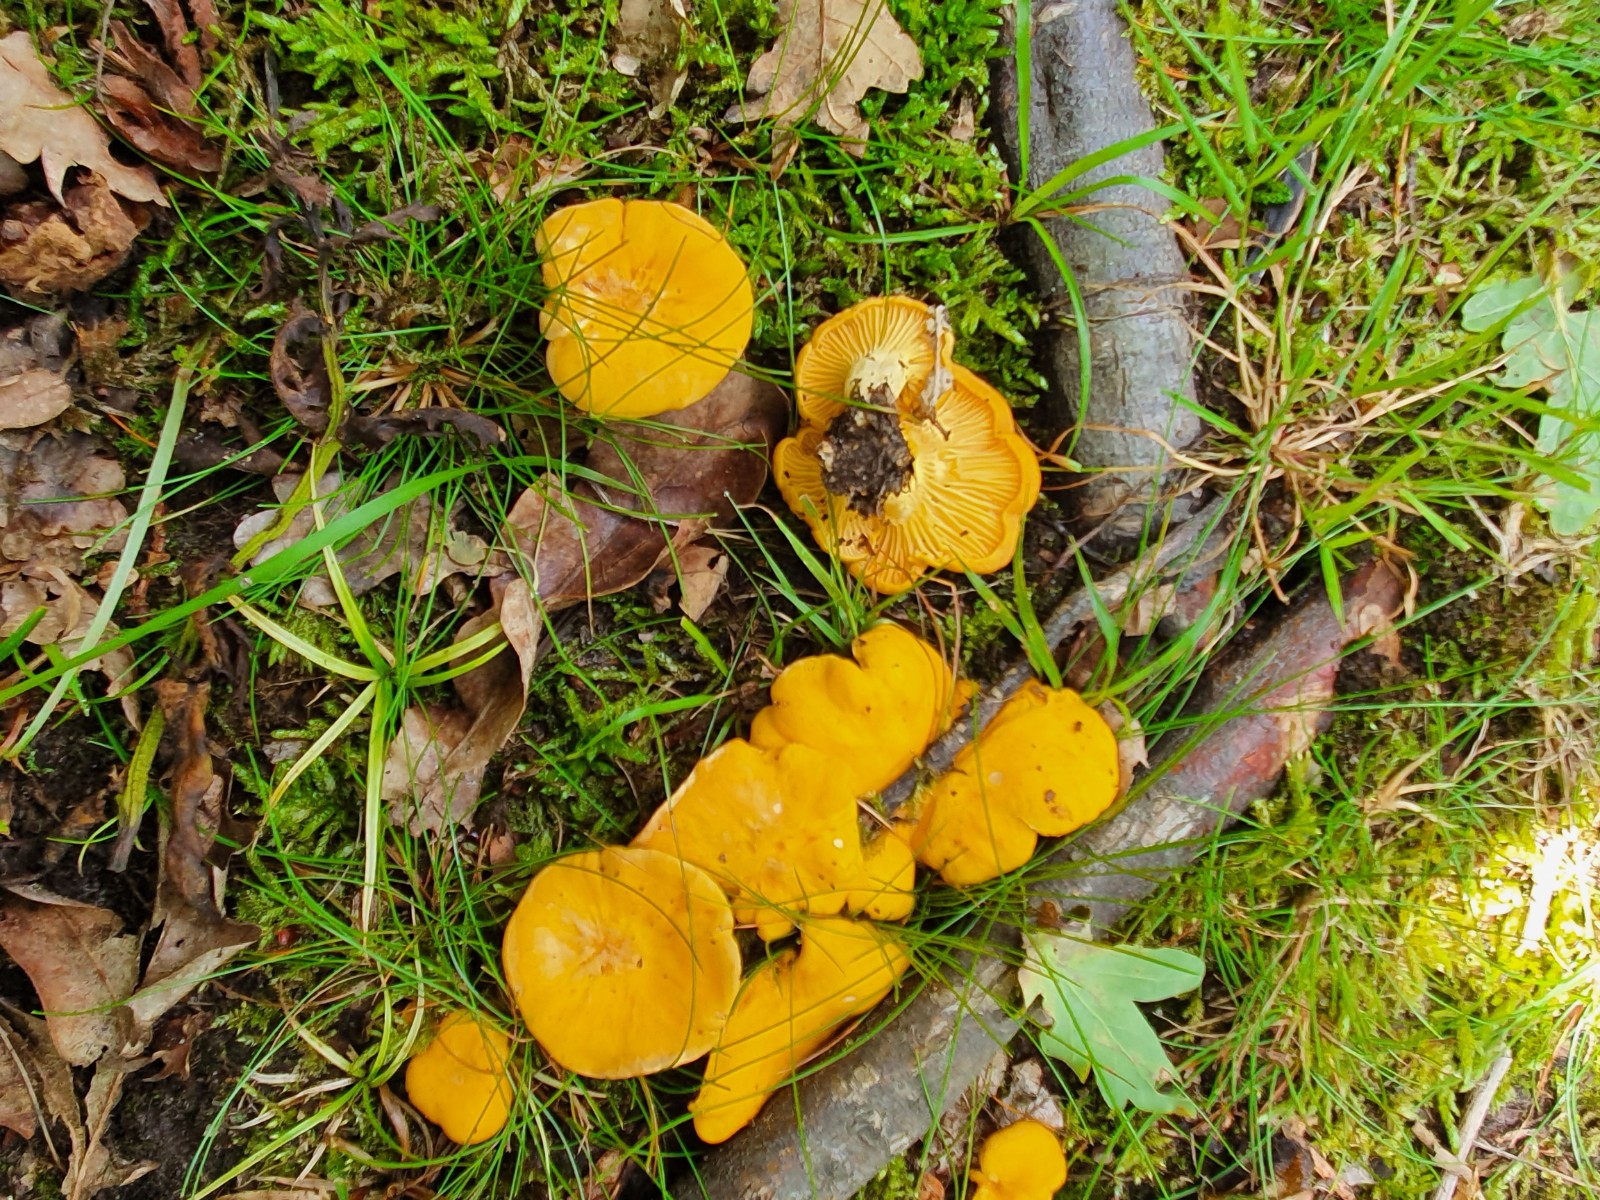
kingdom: Fungi
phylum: Basidiomycota
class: Agaricomycetes
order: Cantharellales
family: Hydnaceae
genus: Cantharellus
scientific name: Cantharellus cibarius
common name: almindelig kantarel
